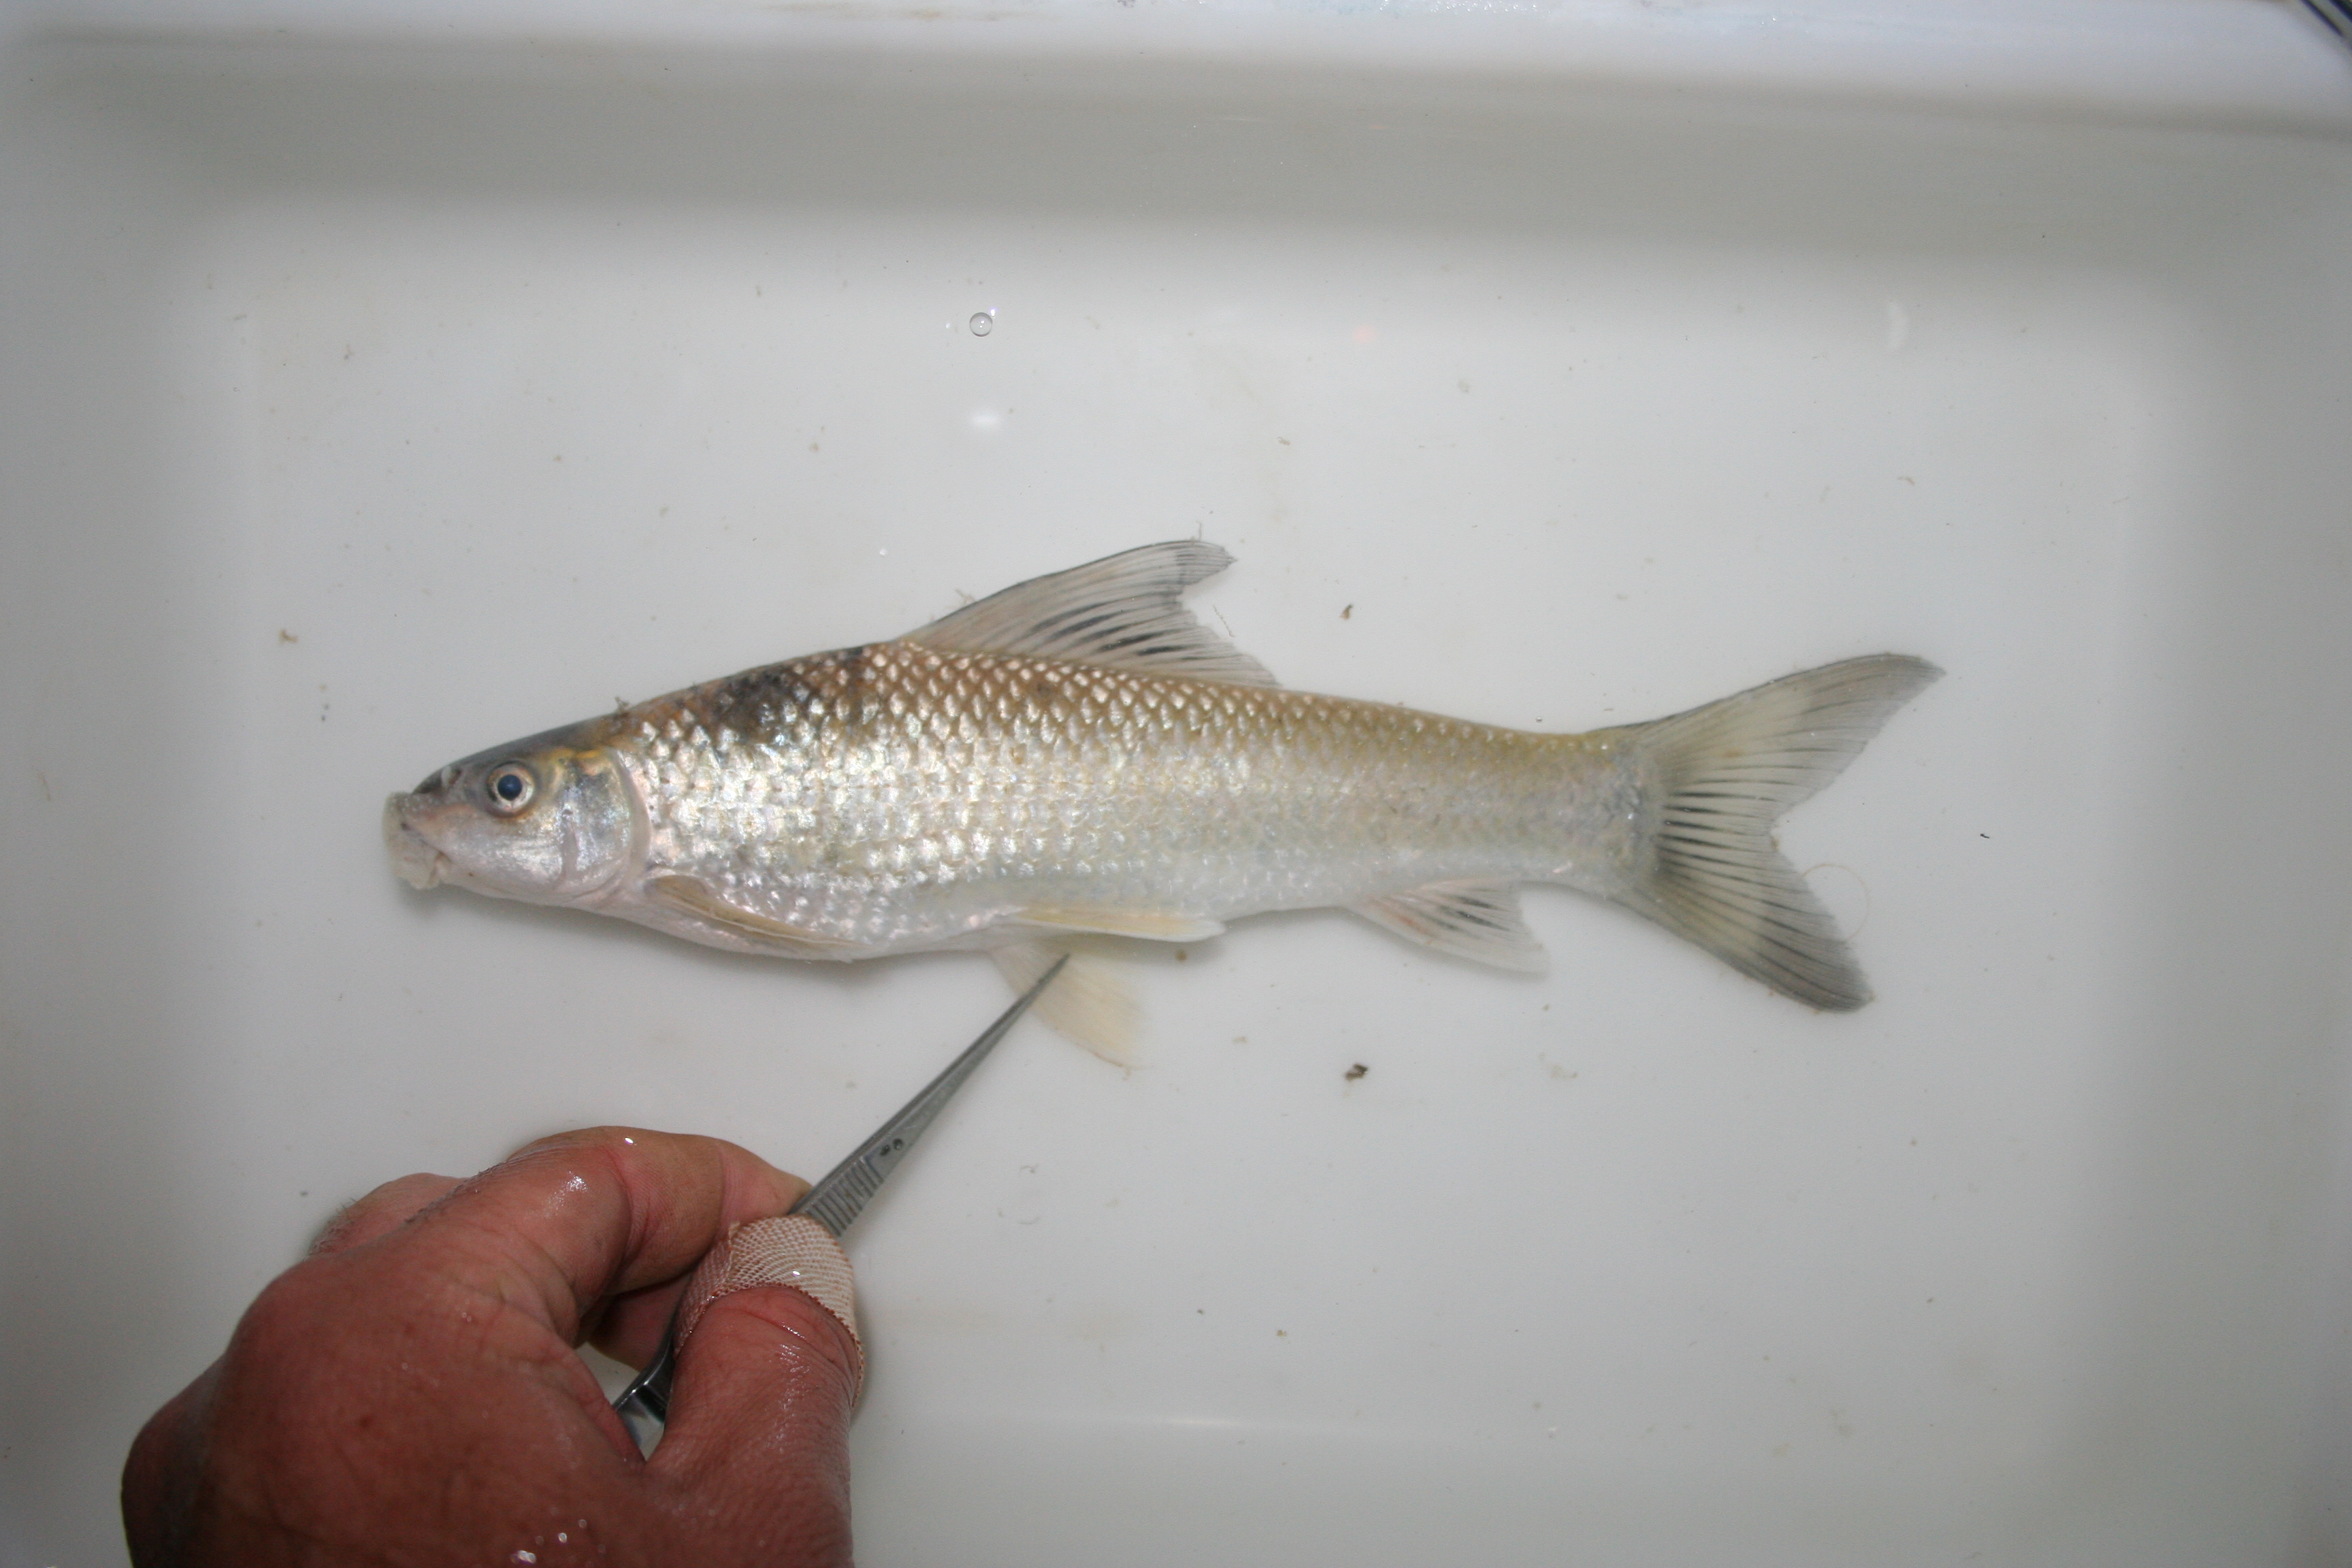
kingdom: Animalia
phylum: Chordata
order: Cypriniformes
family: Cyprinidae
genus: Labeo
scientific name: Labeo
